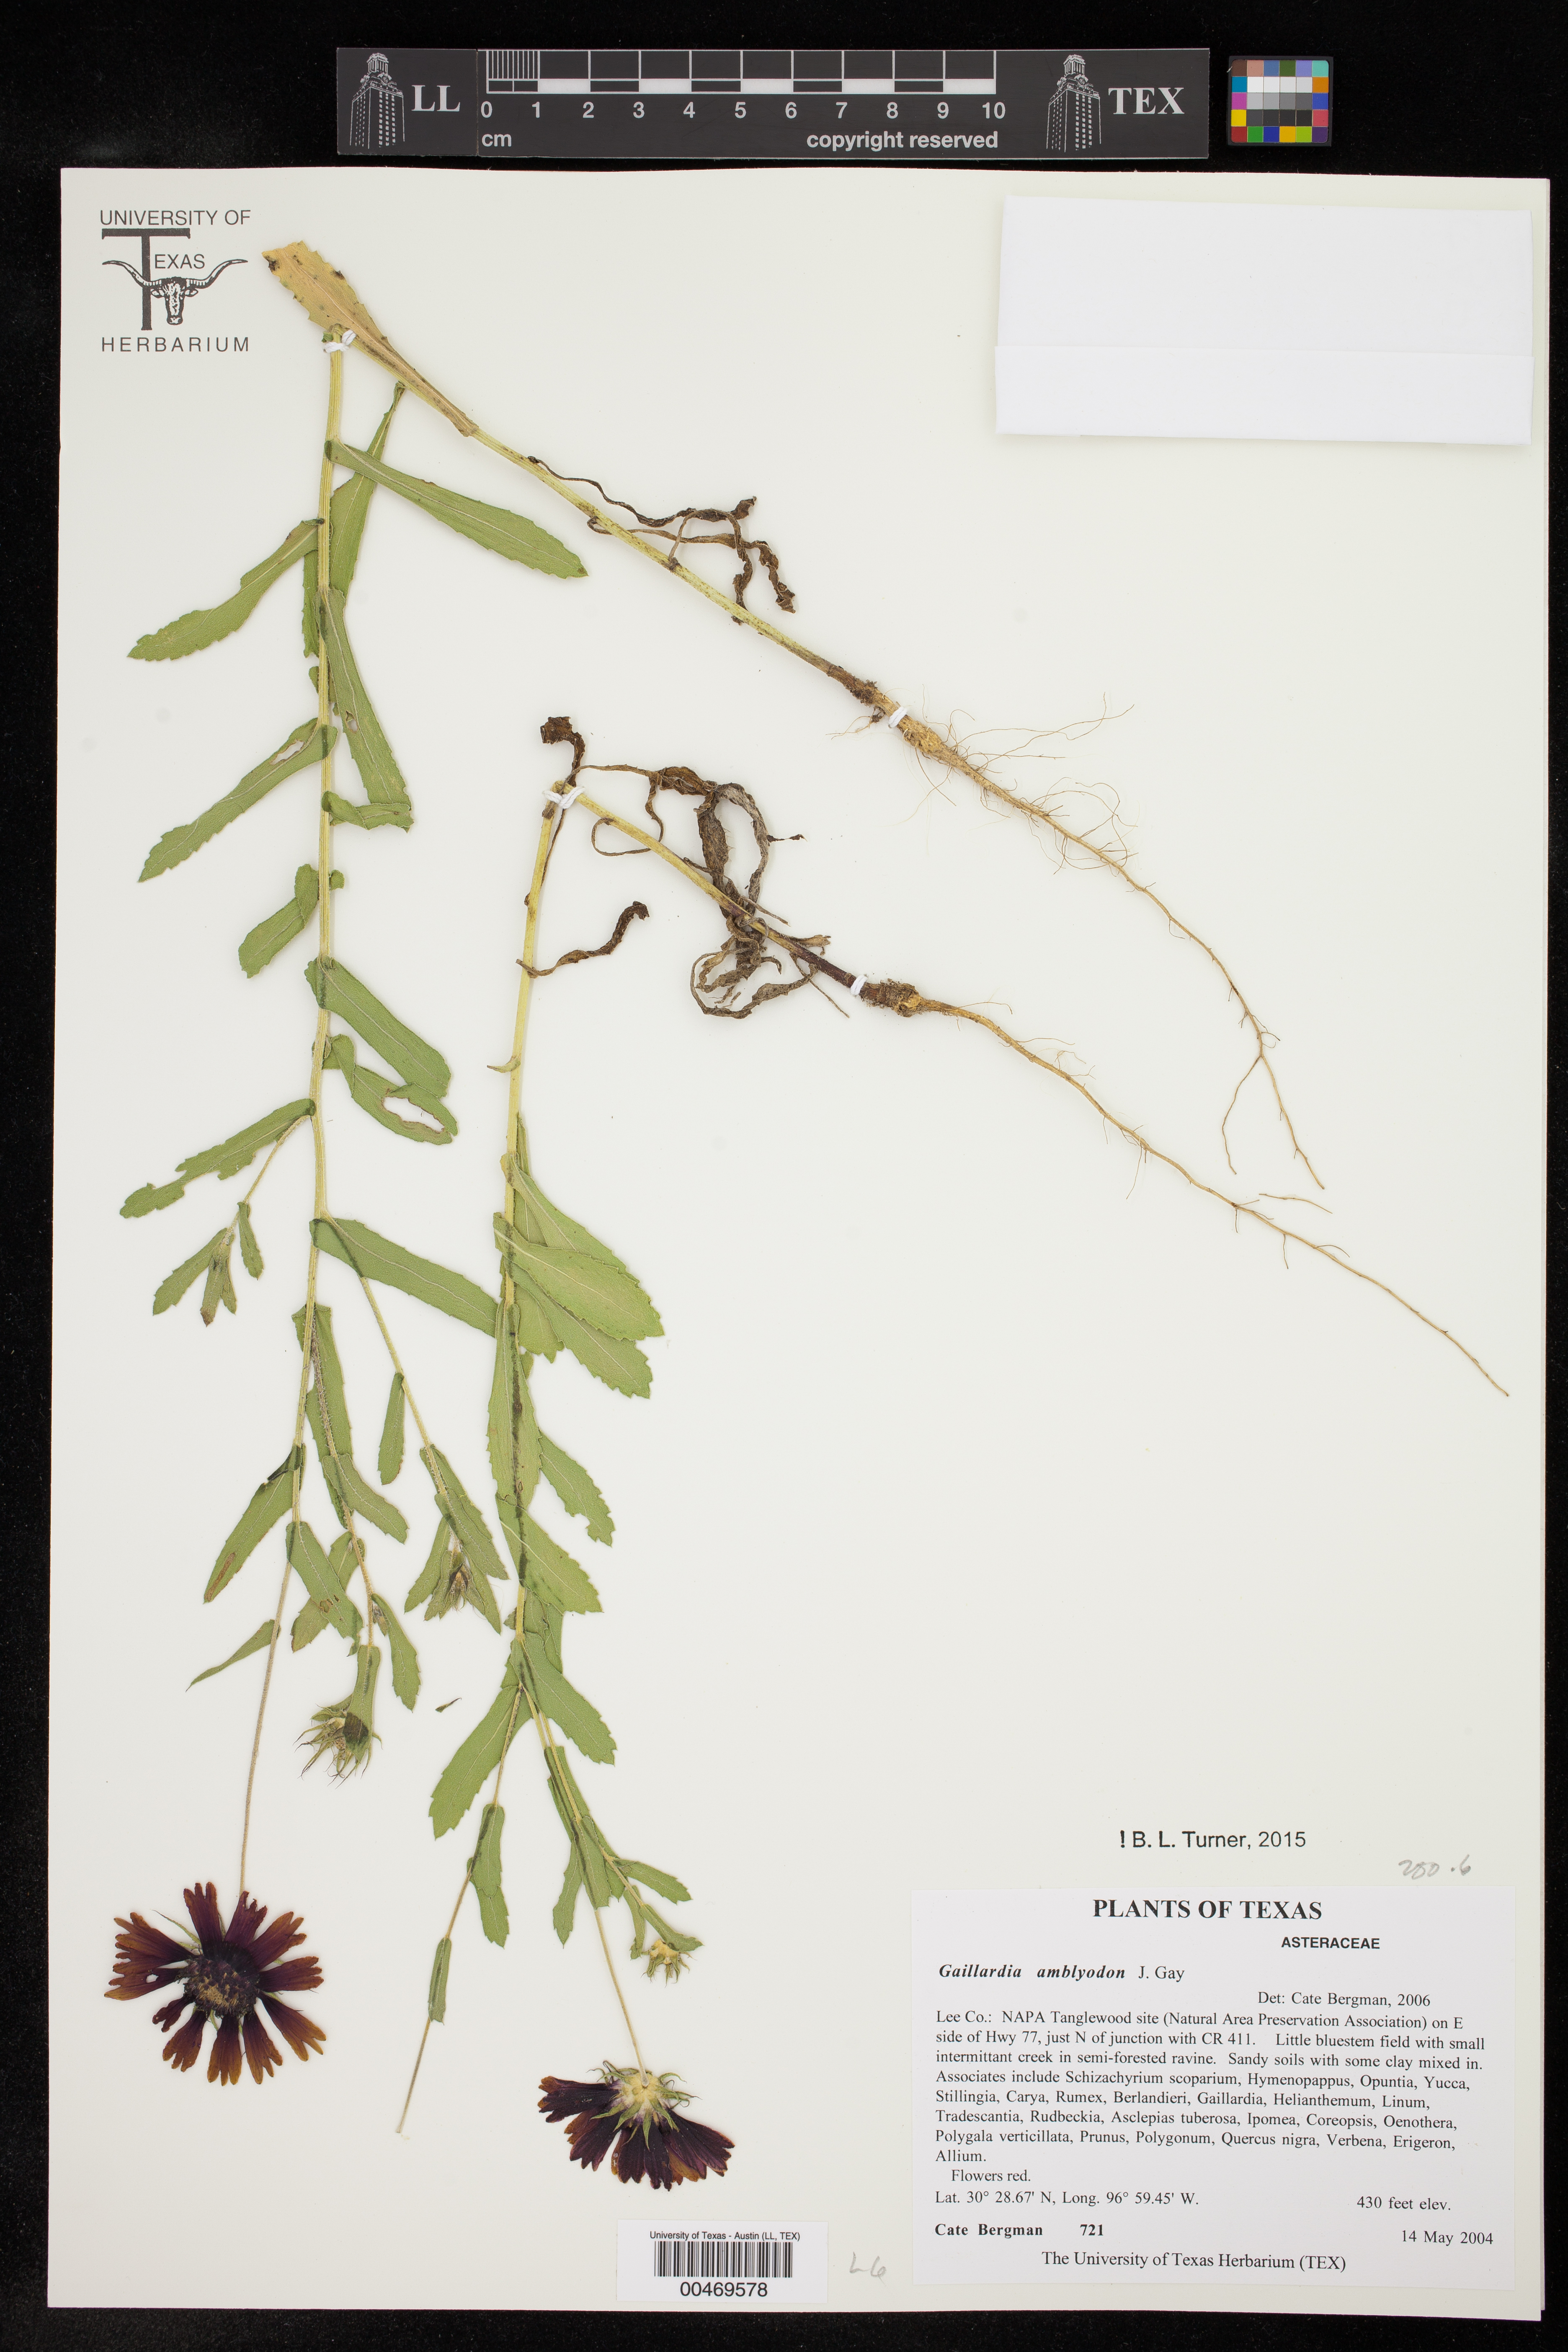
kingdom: Plantae
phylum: Tracheophyta
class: Magnoliopsida
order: Asterales
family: Asteraceae
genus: Gaillardia
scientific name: Gaillardia amblyodon
